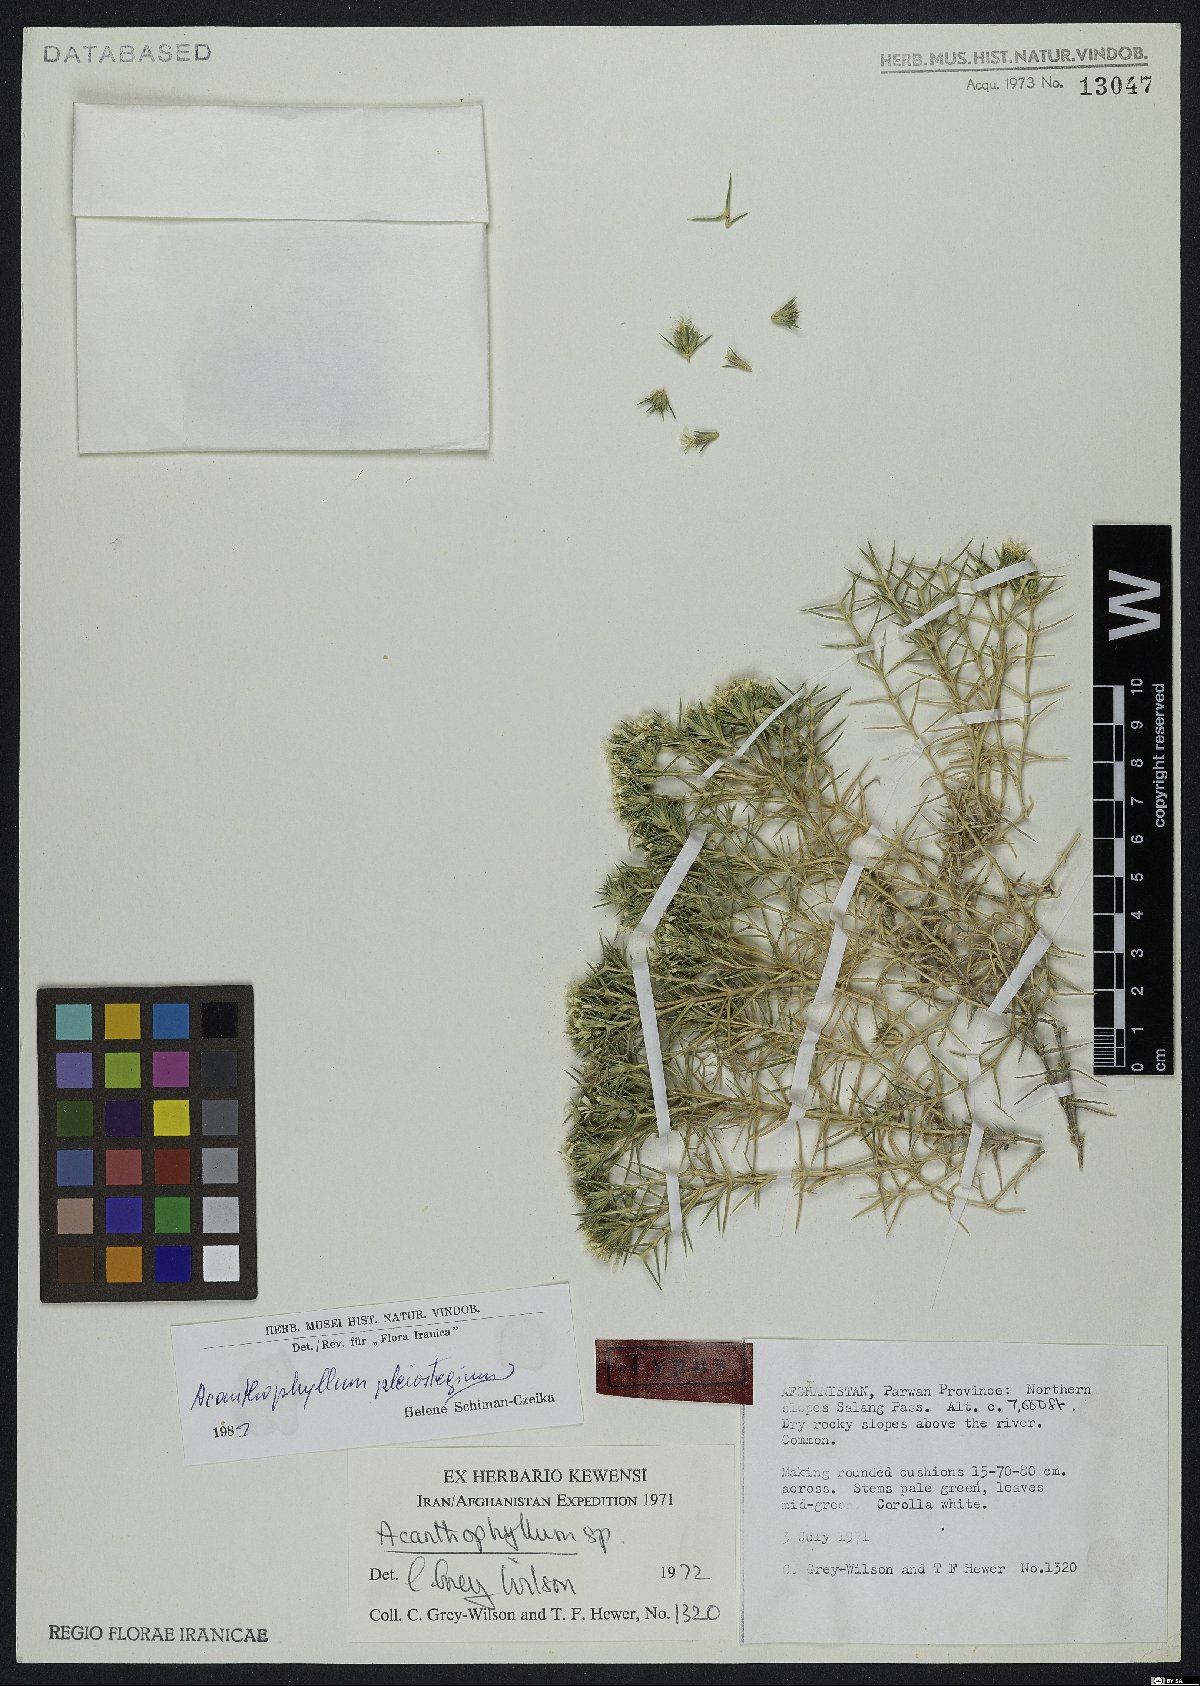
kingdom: Plantae
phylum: Tracheophyta
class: Magnoliopsida
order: Caryophyllales
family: Caryophyllaceae
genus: Acanthophyllum
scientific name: Acanthophyllum pleiostegium
